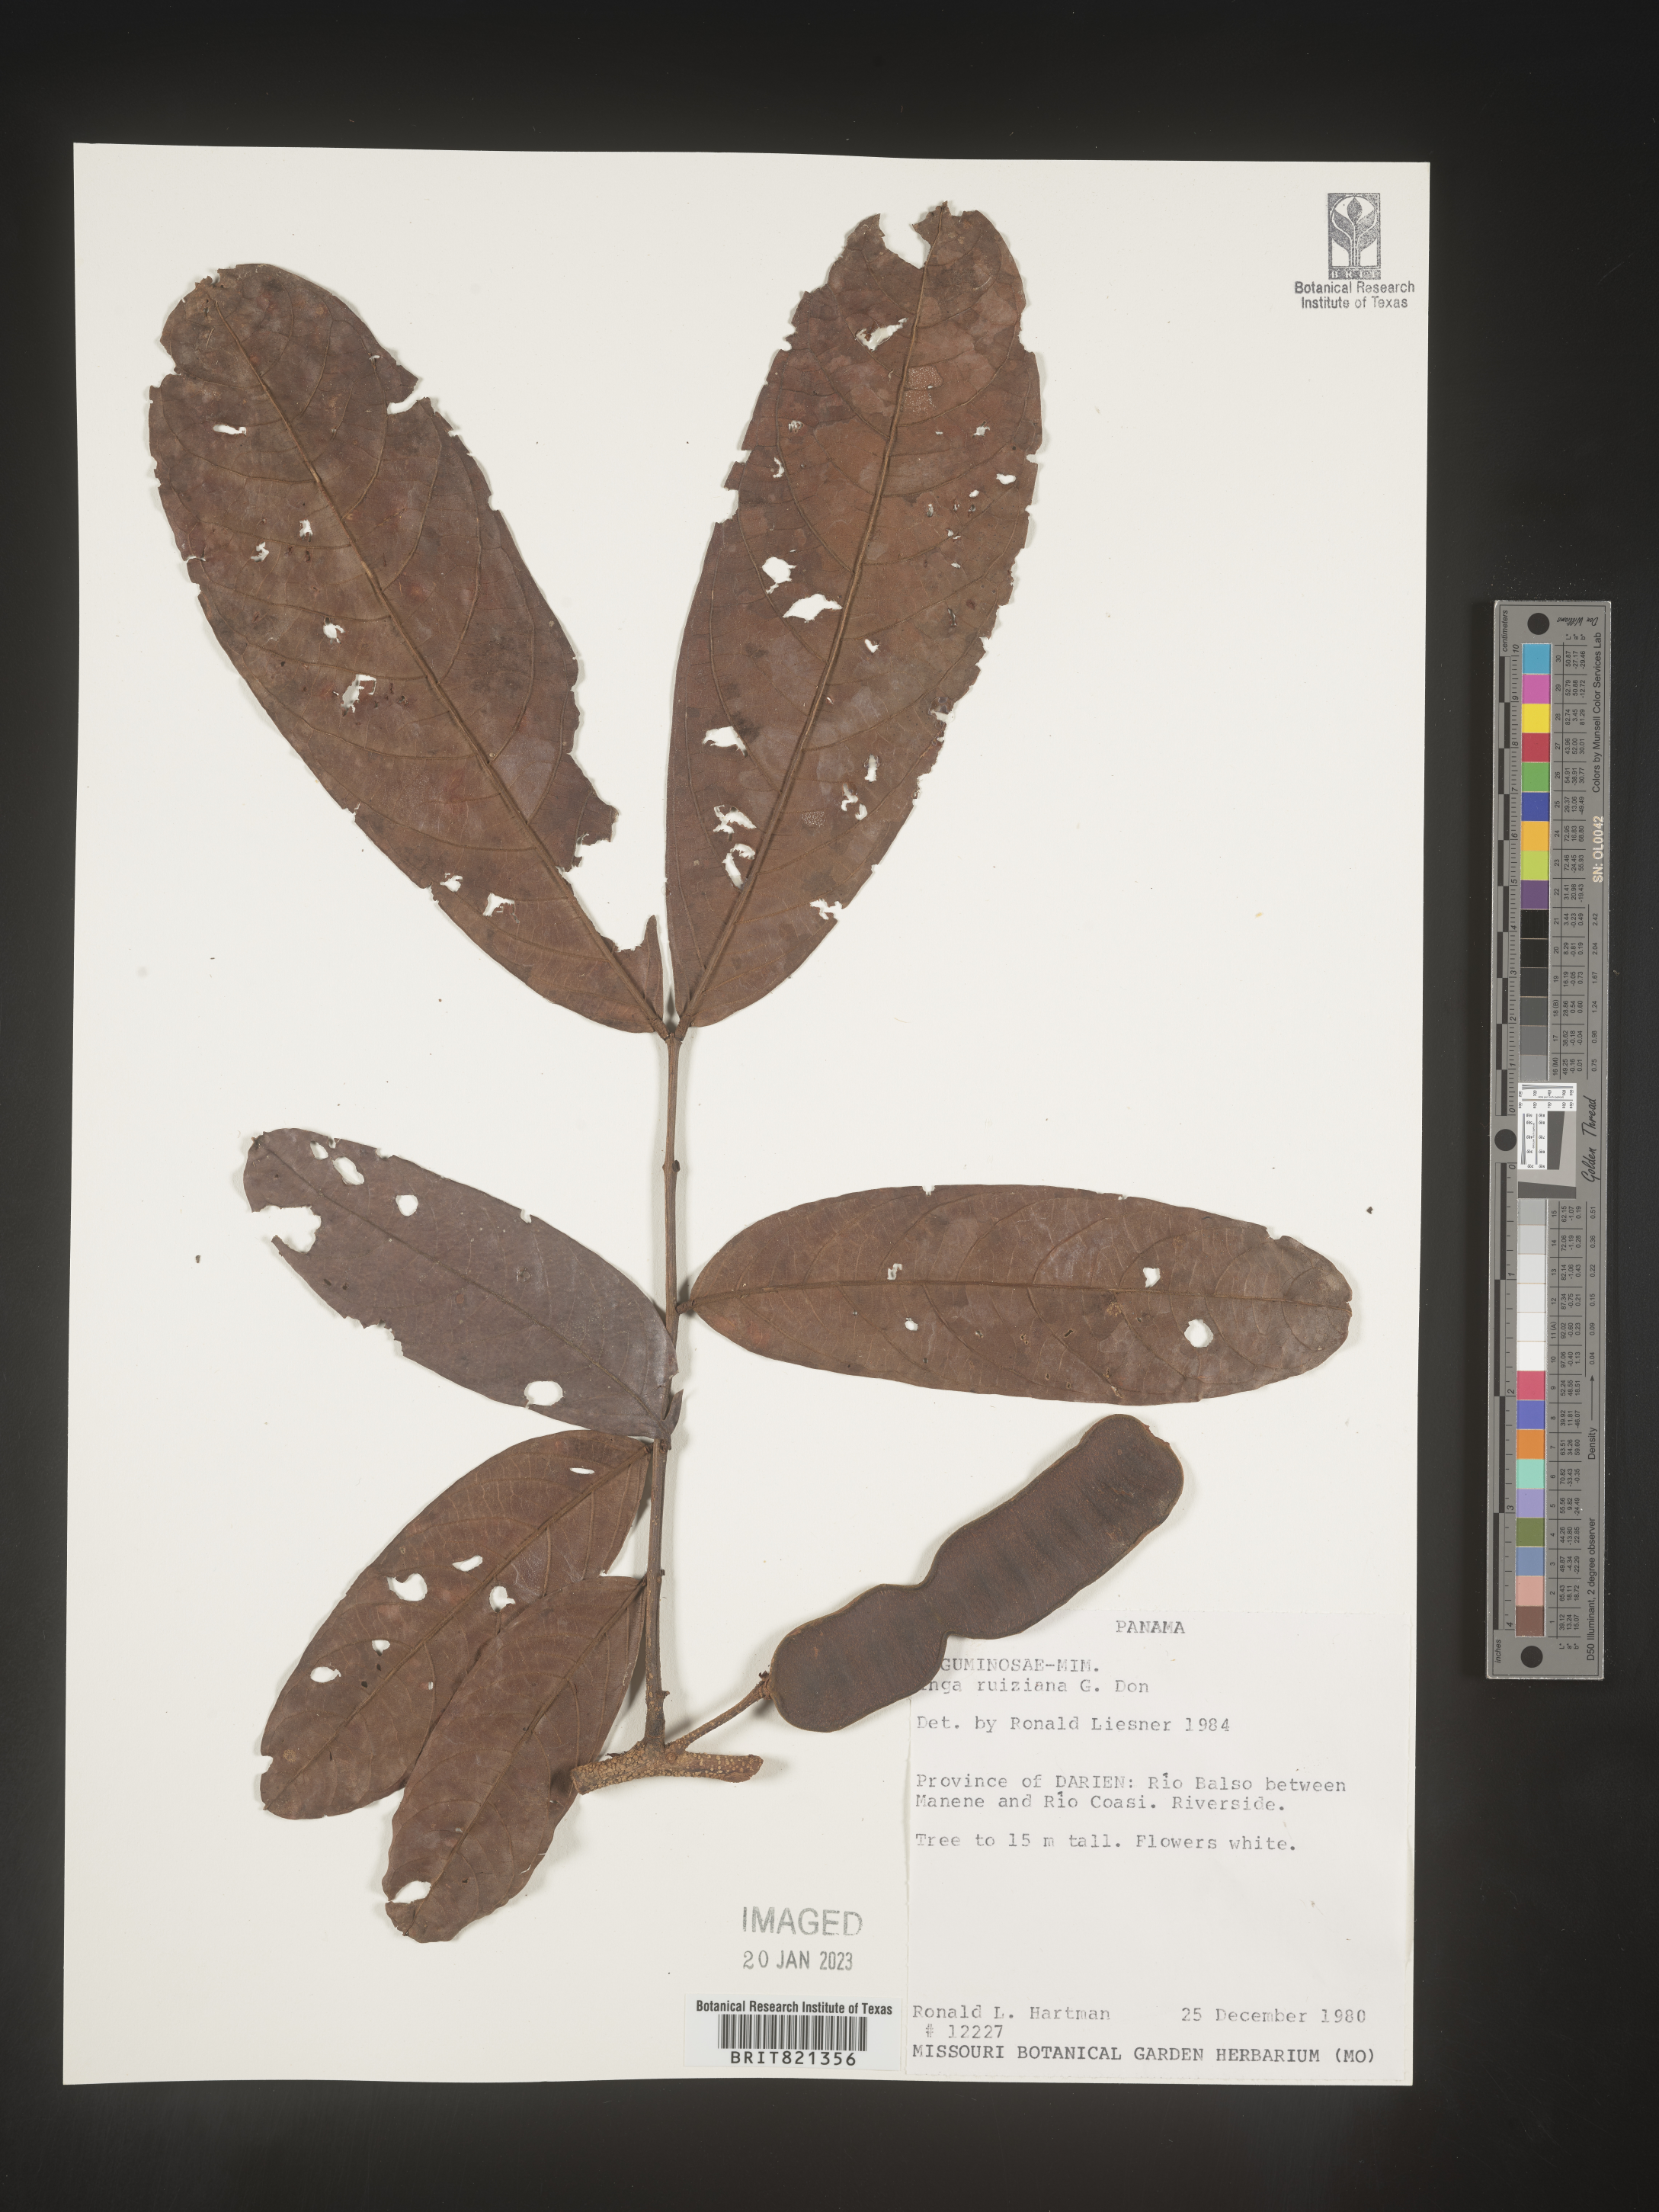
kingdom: Plantae
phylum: Tracheophyta
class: Magnoliopsida
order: Fabales
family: Fabaceae
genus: Inga
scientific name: Inga
